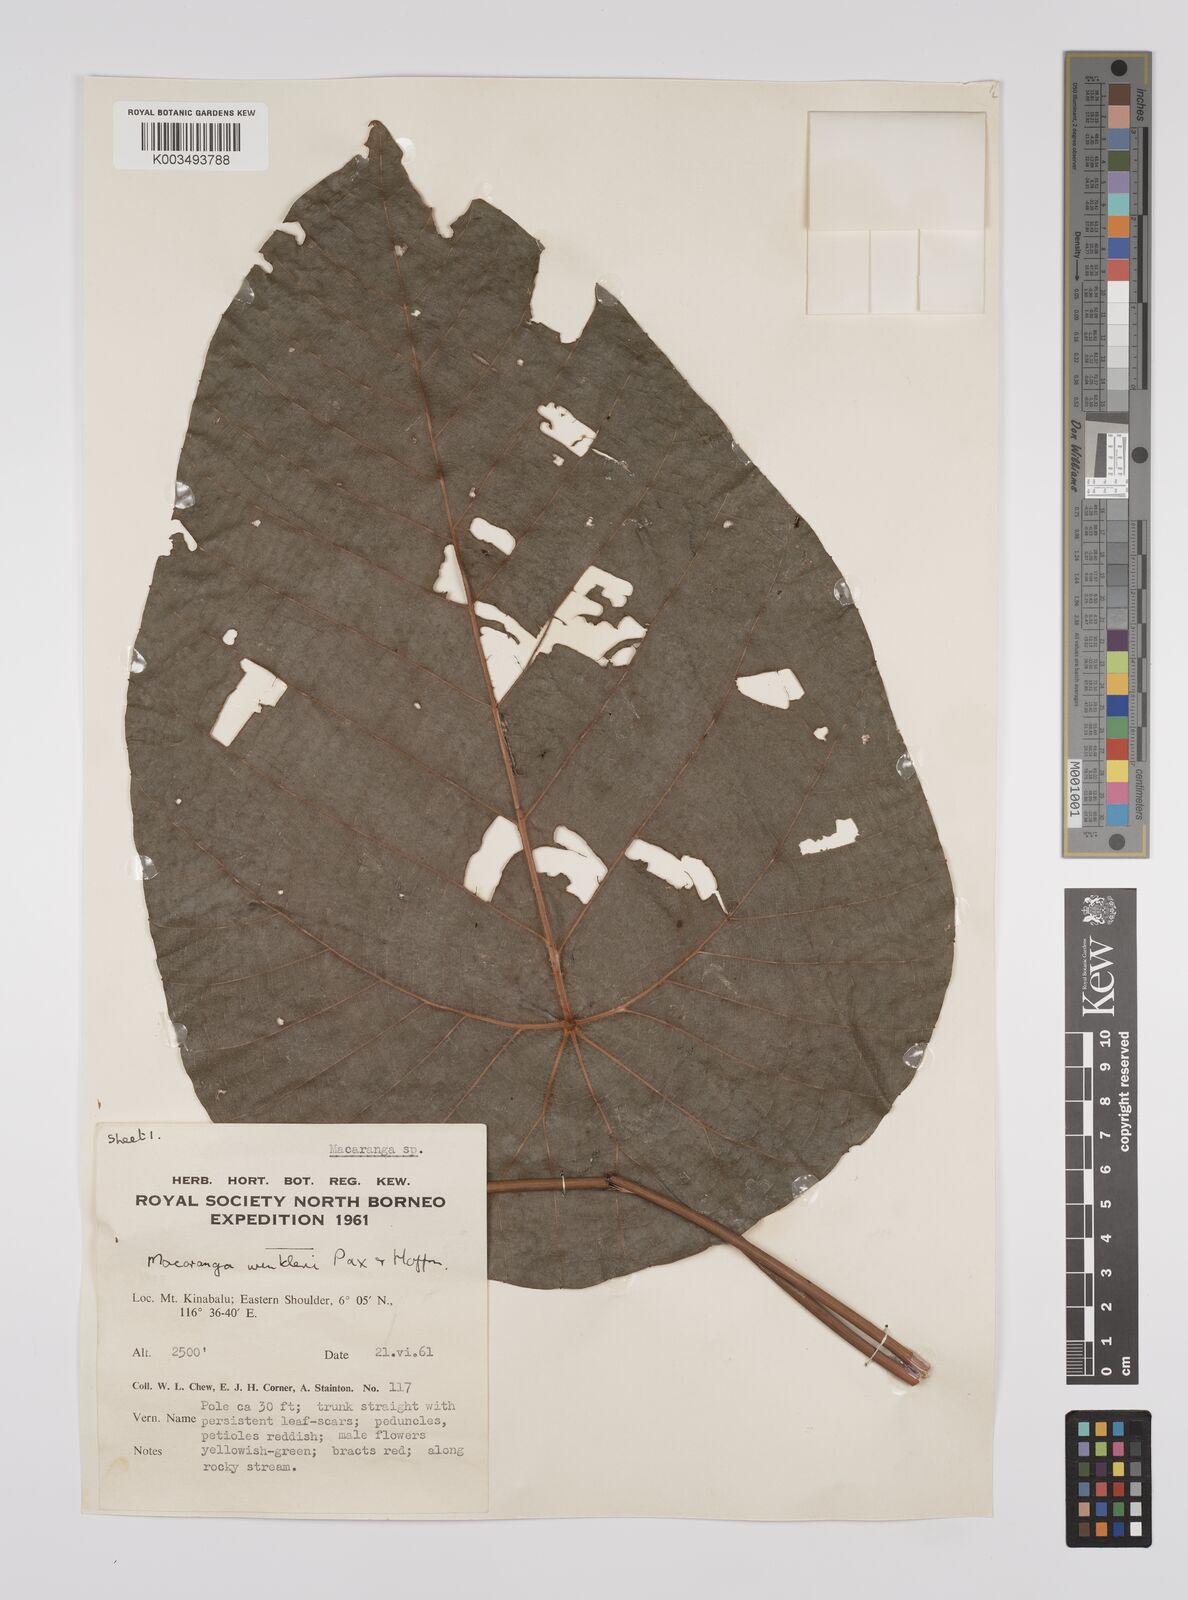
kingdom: Plantae
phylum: Tracheophyta
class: Magnoliopsida
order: Malpighiales
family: Euphorbiaceae
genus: Macaranga
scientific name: Macaranga winkleri
